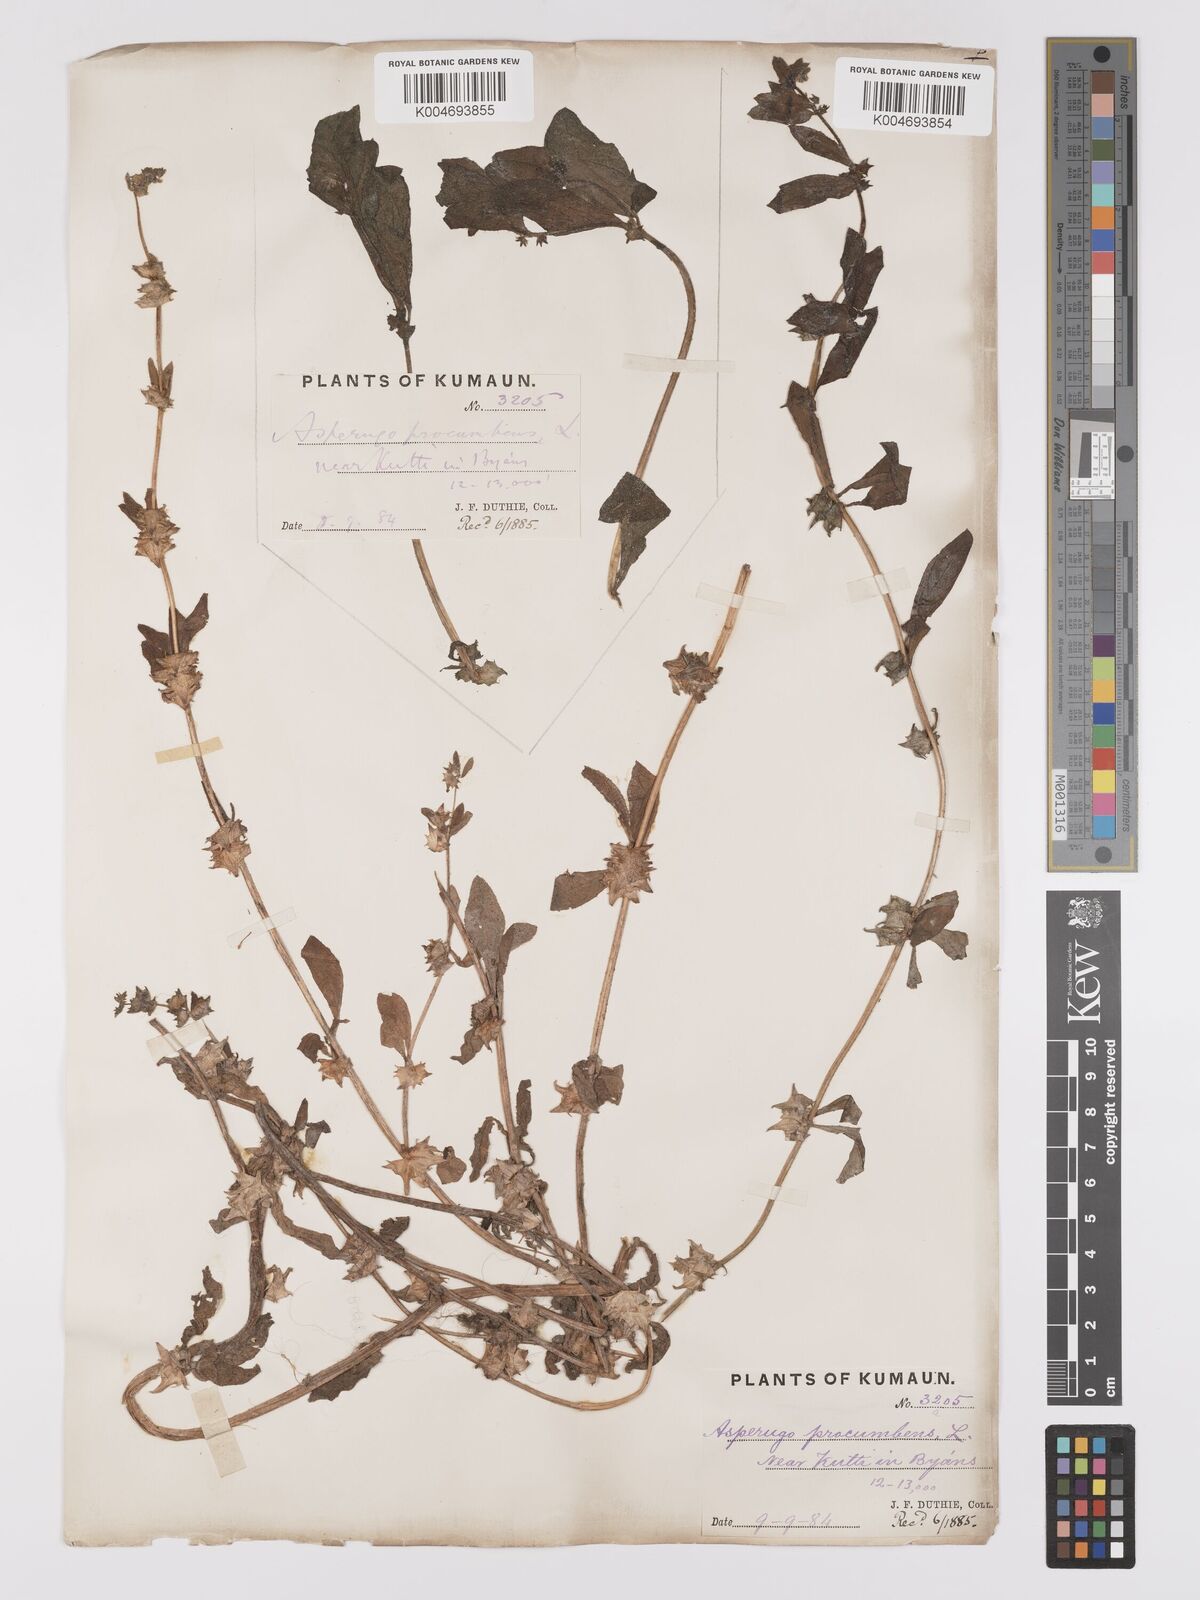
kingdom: Plantae
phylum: Tracheophyta
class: Magnoliopsida
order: Boraginales
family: Boraginaceae
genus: Asperugo
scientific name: Asperugo procumbens
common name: Madwort
